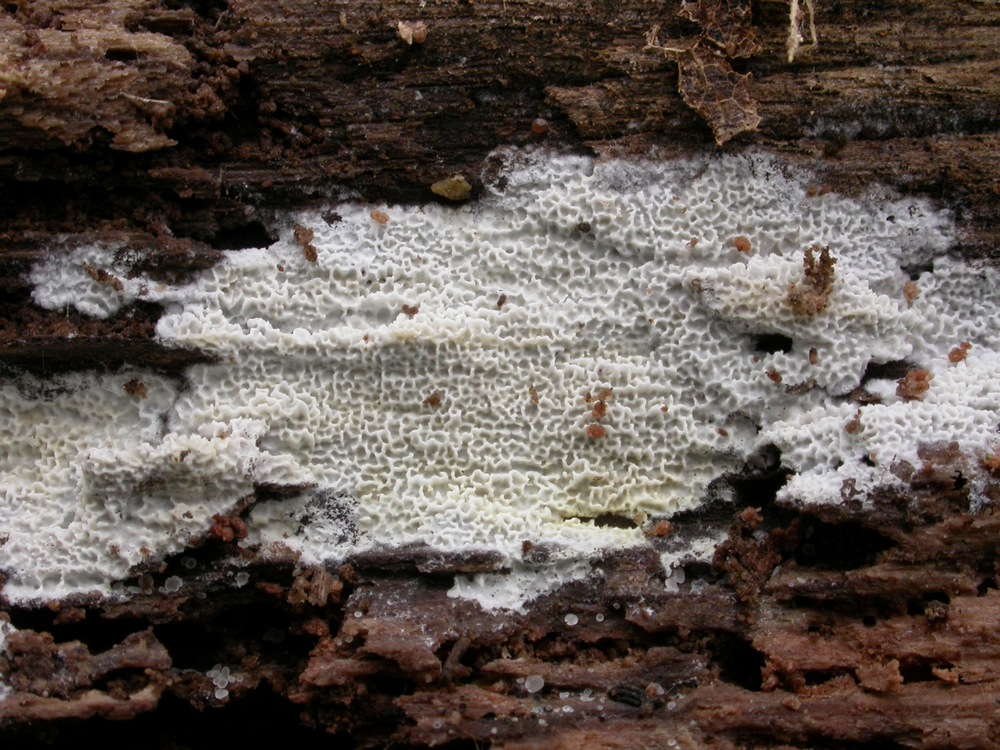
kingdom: Fungi
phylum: Basidiomycota
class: Agaricomycetes
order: Polyporales
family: Irpicaceae
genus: Ceriporia
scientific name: Ceriporia reticulata
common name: netagtig voksporesvamp
